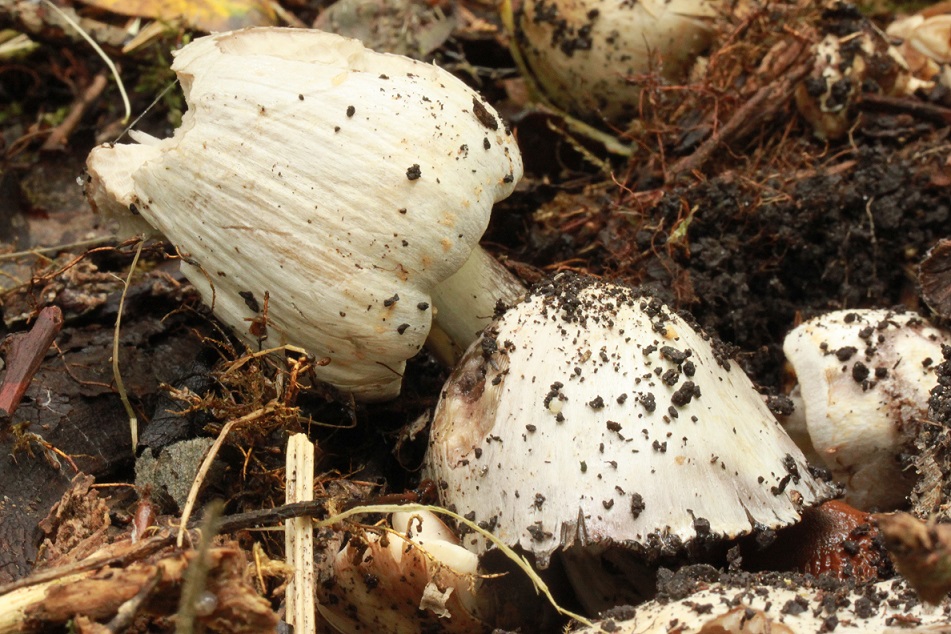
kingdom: Fungi
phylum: Basidiomycota
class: Agaricomycetes
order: Agaricales
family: Psathyrellaceae
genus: Coprinopsis
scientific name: Coprinopsis atramentaria
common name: almindelig blækhat
